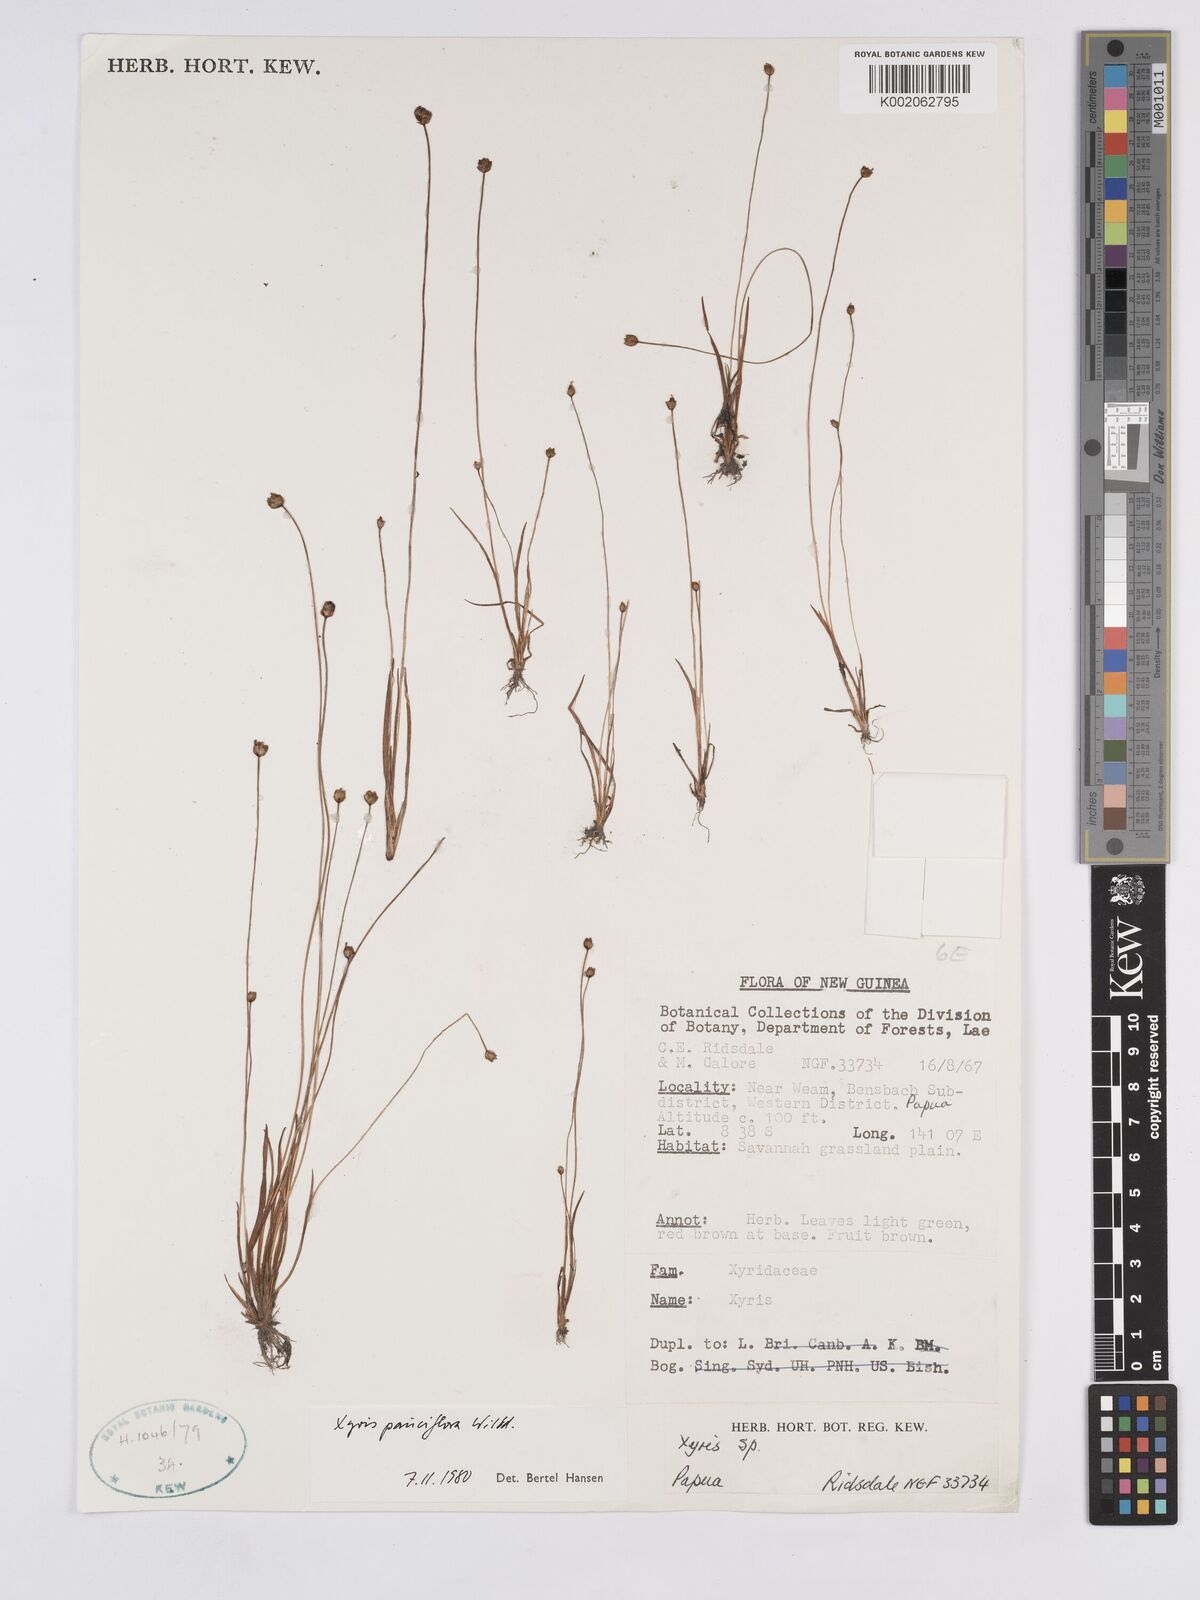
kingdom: Plantae
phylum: Tracheophyta
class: Liliopsida
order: Poales
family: Xyridaceae
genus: Xyris
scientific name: Xyris pauciflora
